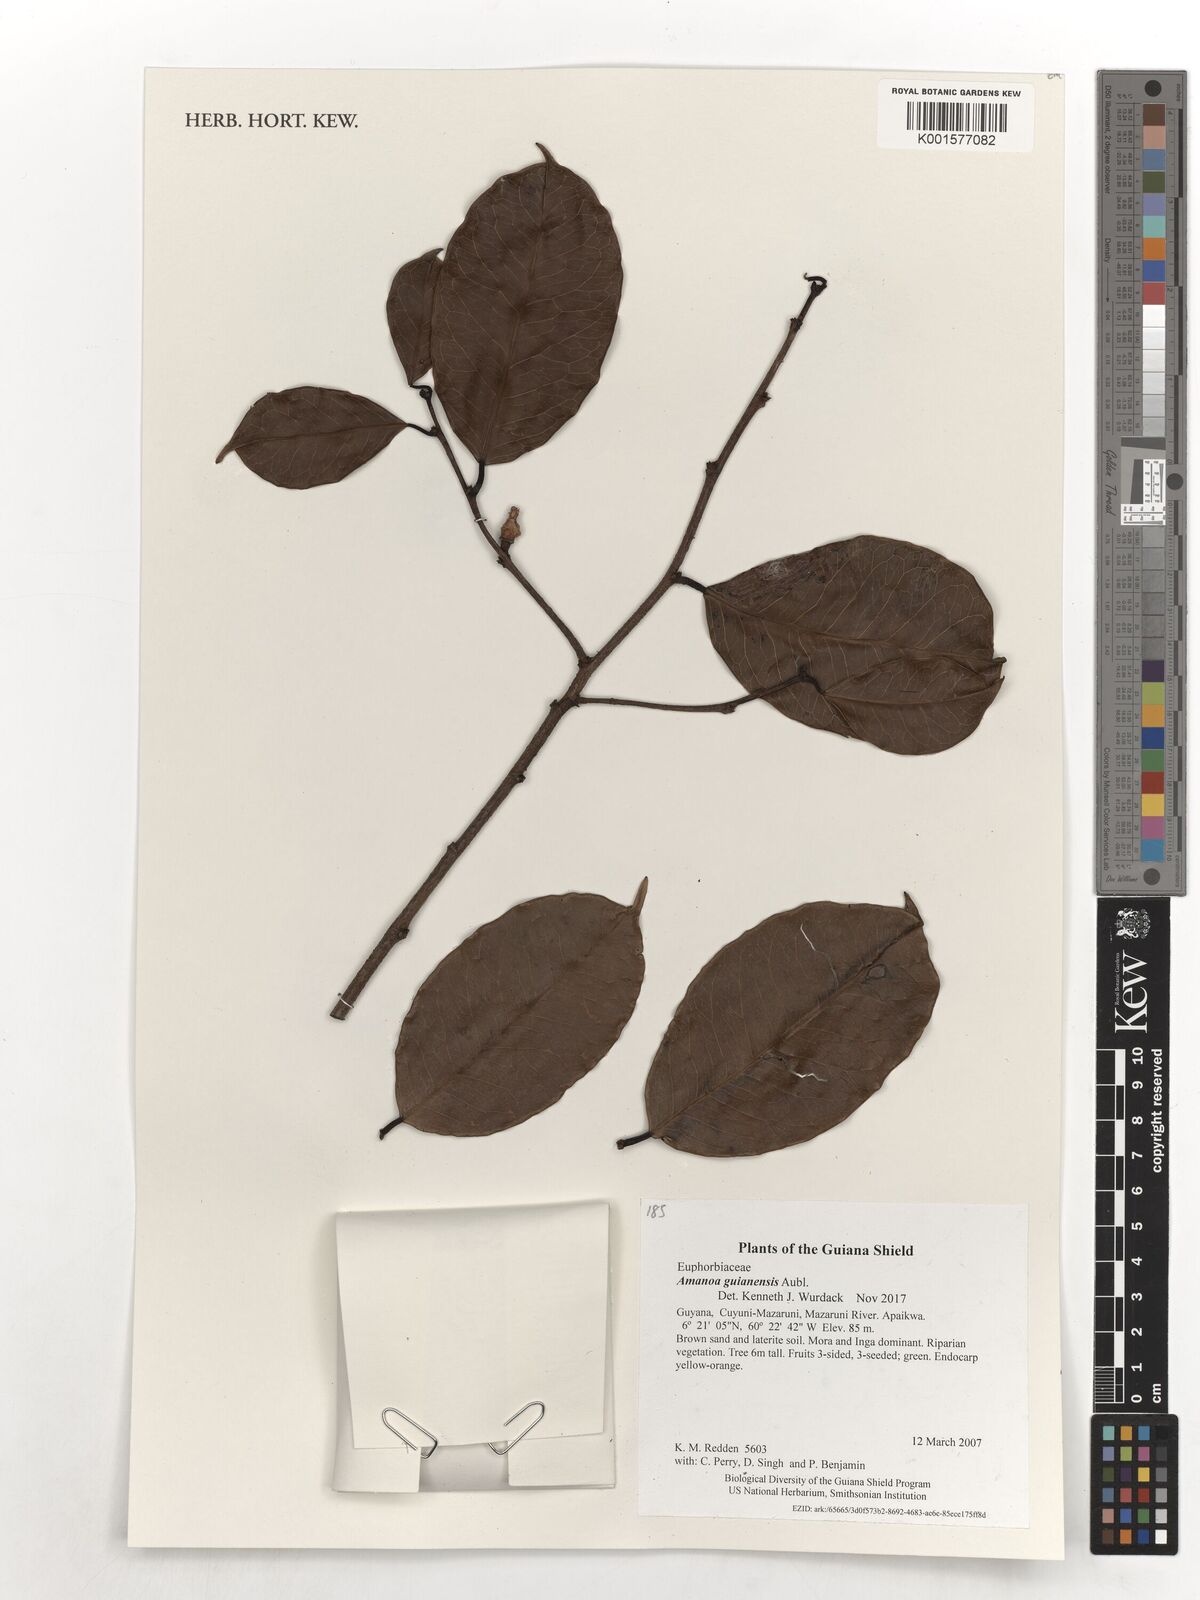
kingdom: Plantae
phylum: Tracheophyta
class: Magnoliopsida
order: Malpighiales
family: Phyllanthaceae
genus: Amanoa
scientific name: Amanoa guianensis
